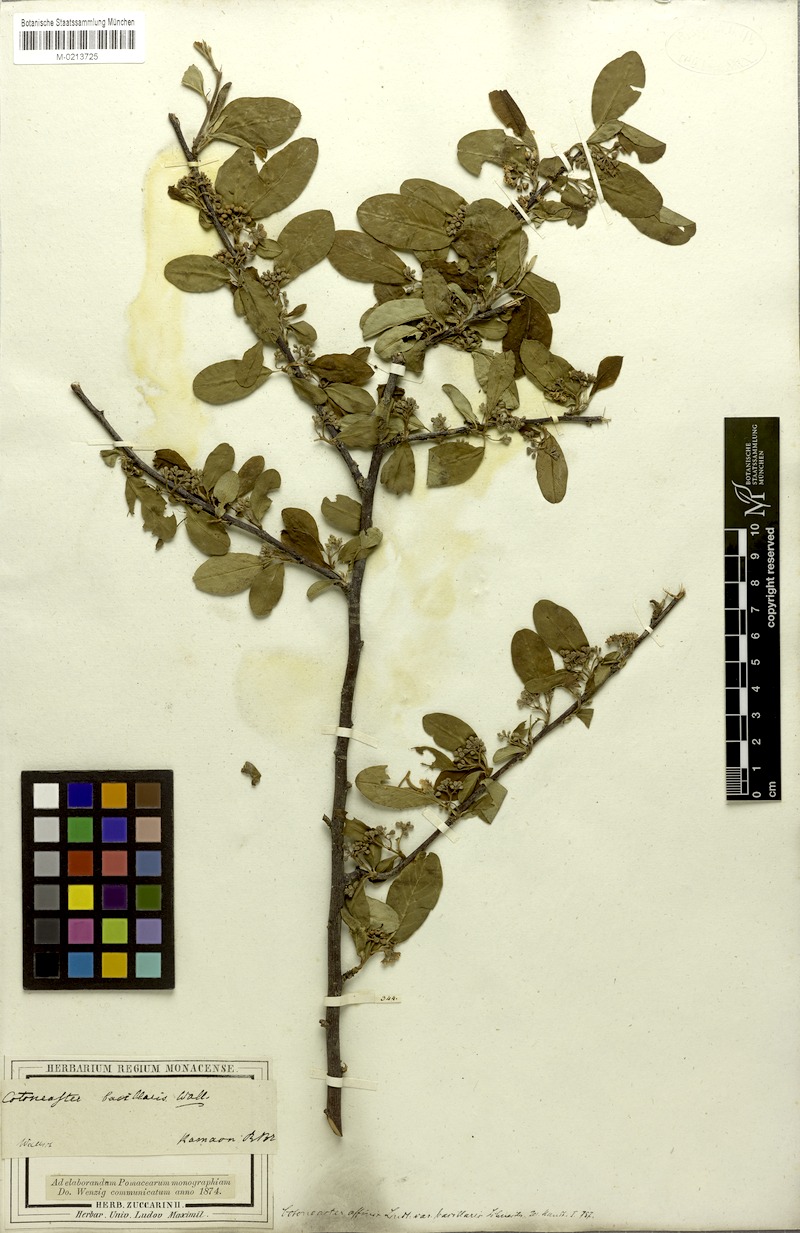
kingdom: Plantae
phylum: Tracheophyta
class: Magnoliopsida
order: Rosales
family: Rosaceae
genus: Cotoneaster
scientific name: Cotoneaster affinis
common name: Purpleberry cotoneaster
